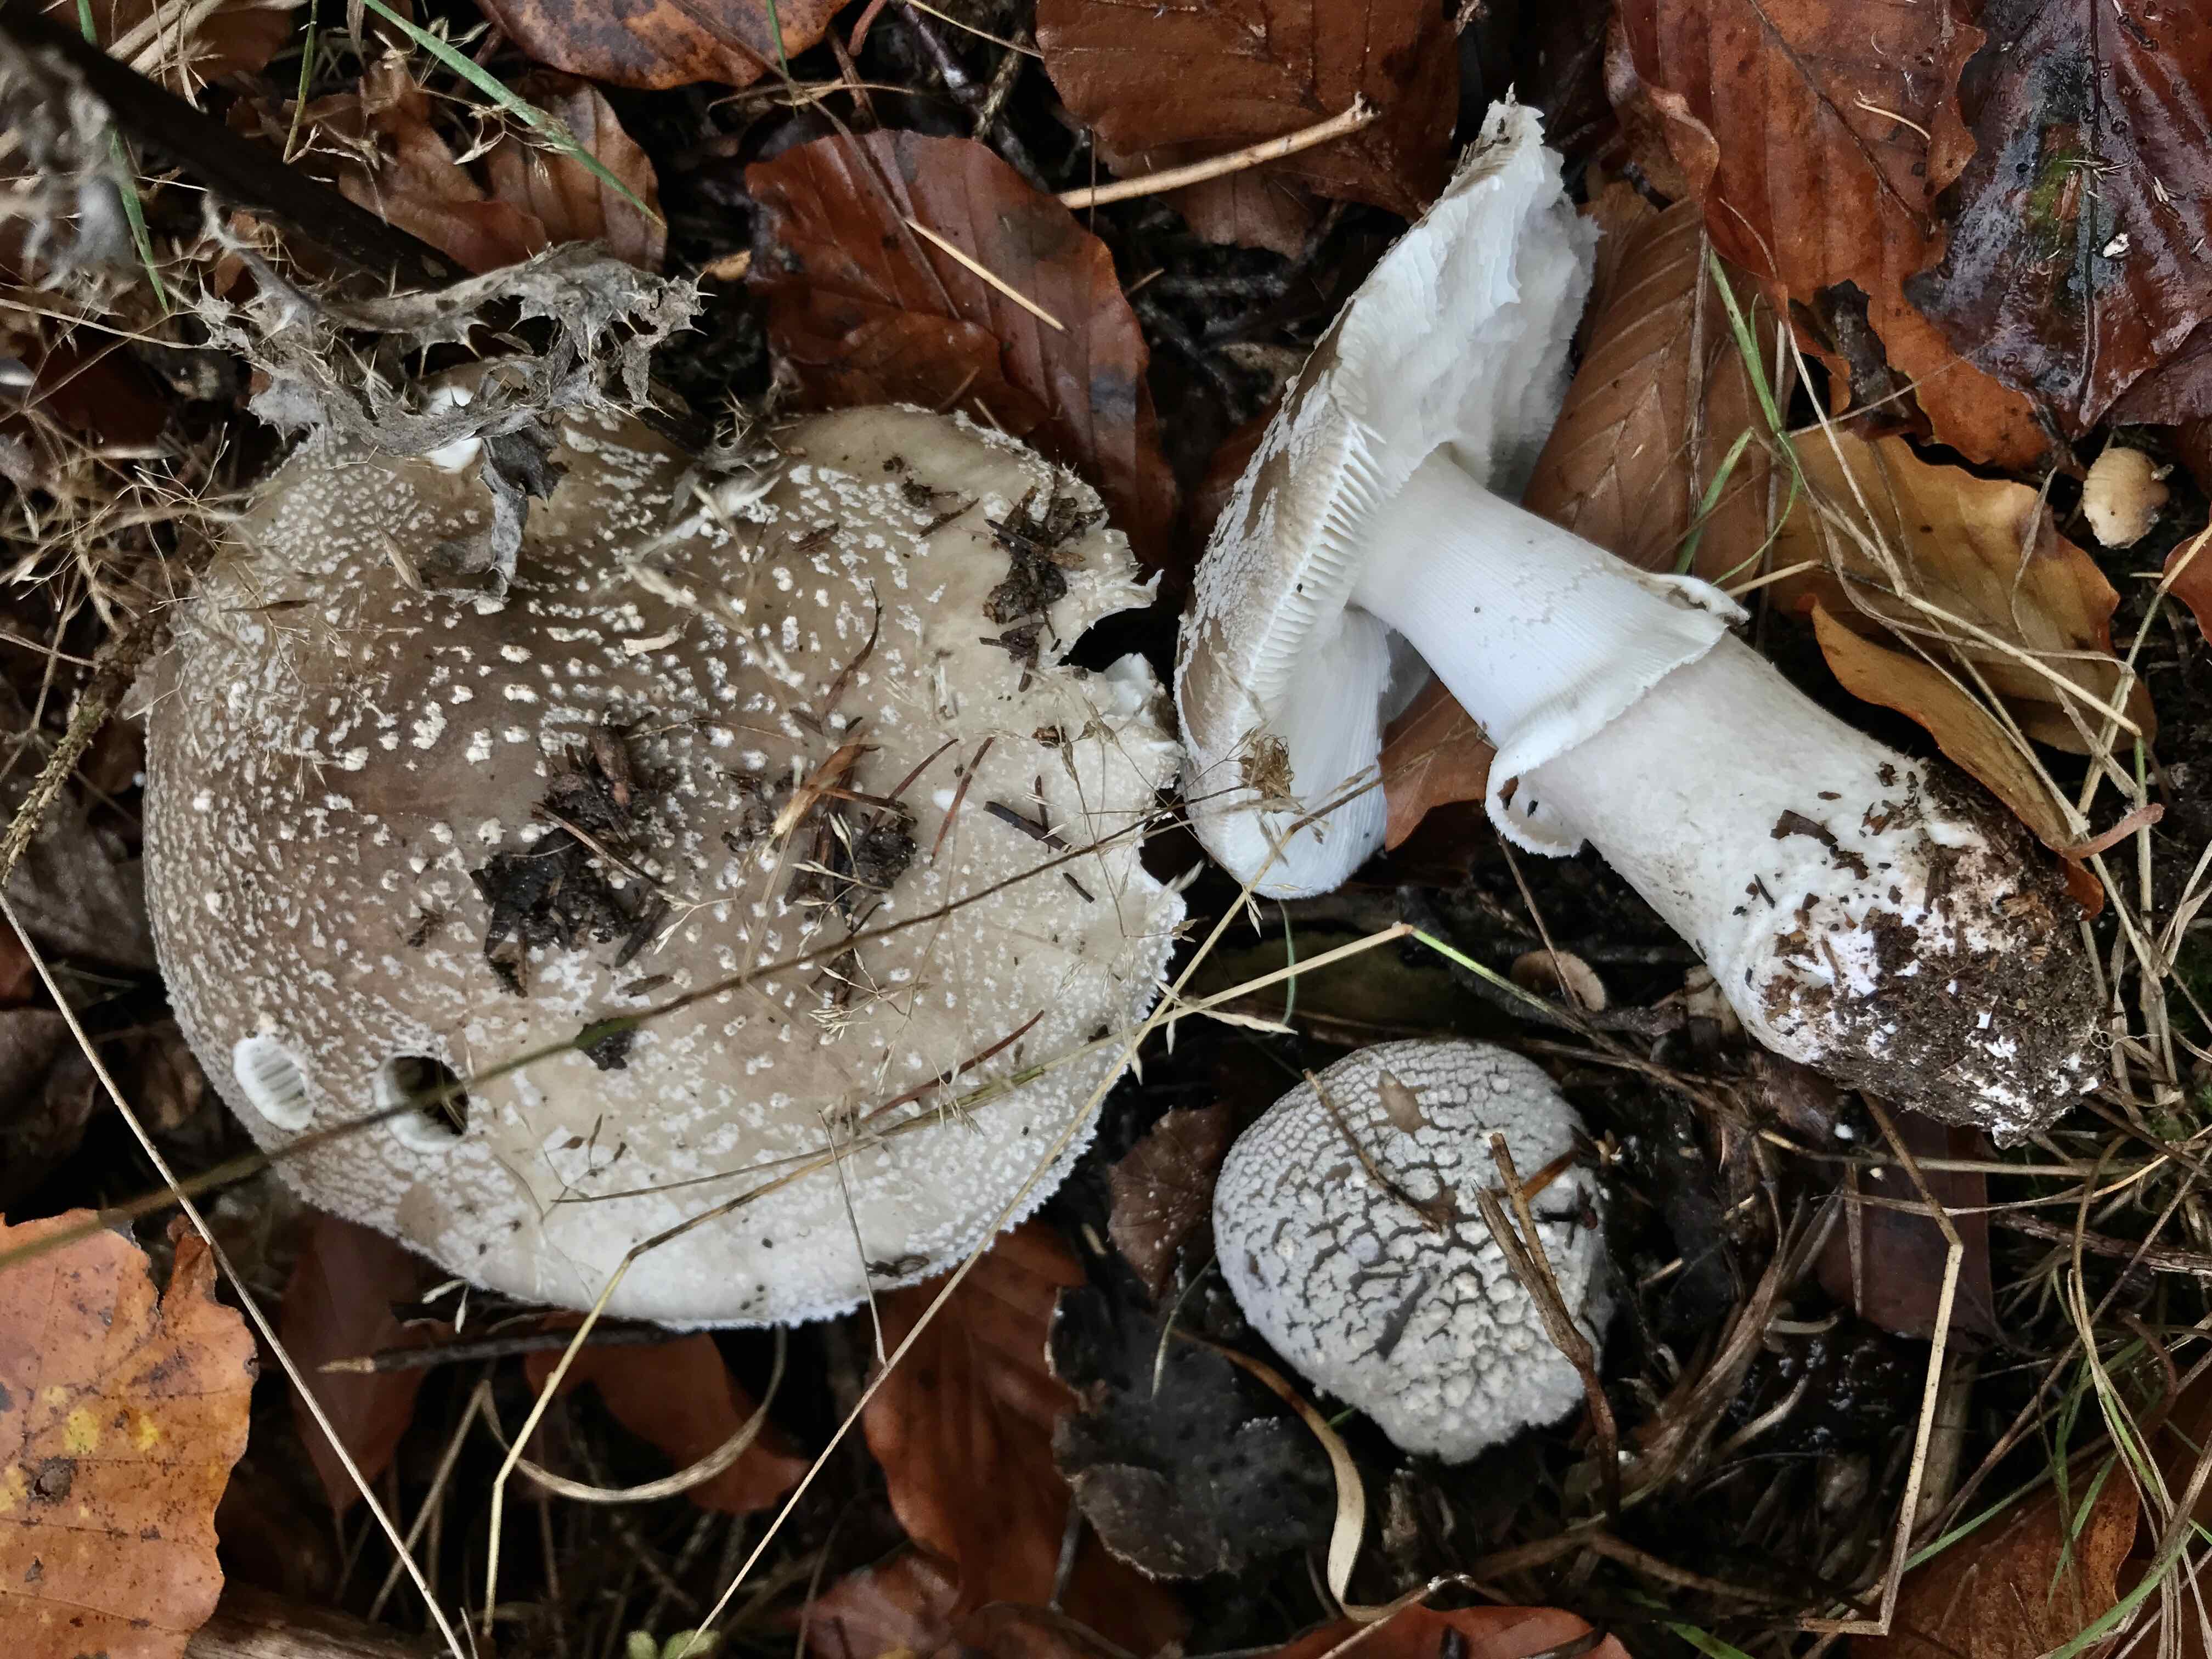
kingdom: Fungi
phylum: Basidiomycota
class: Agaricomycetes
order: Agaricales
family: Amanitaceae
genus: Amanita
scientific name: Amanita
